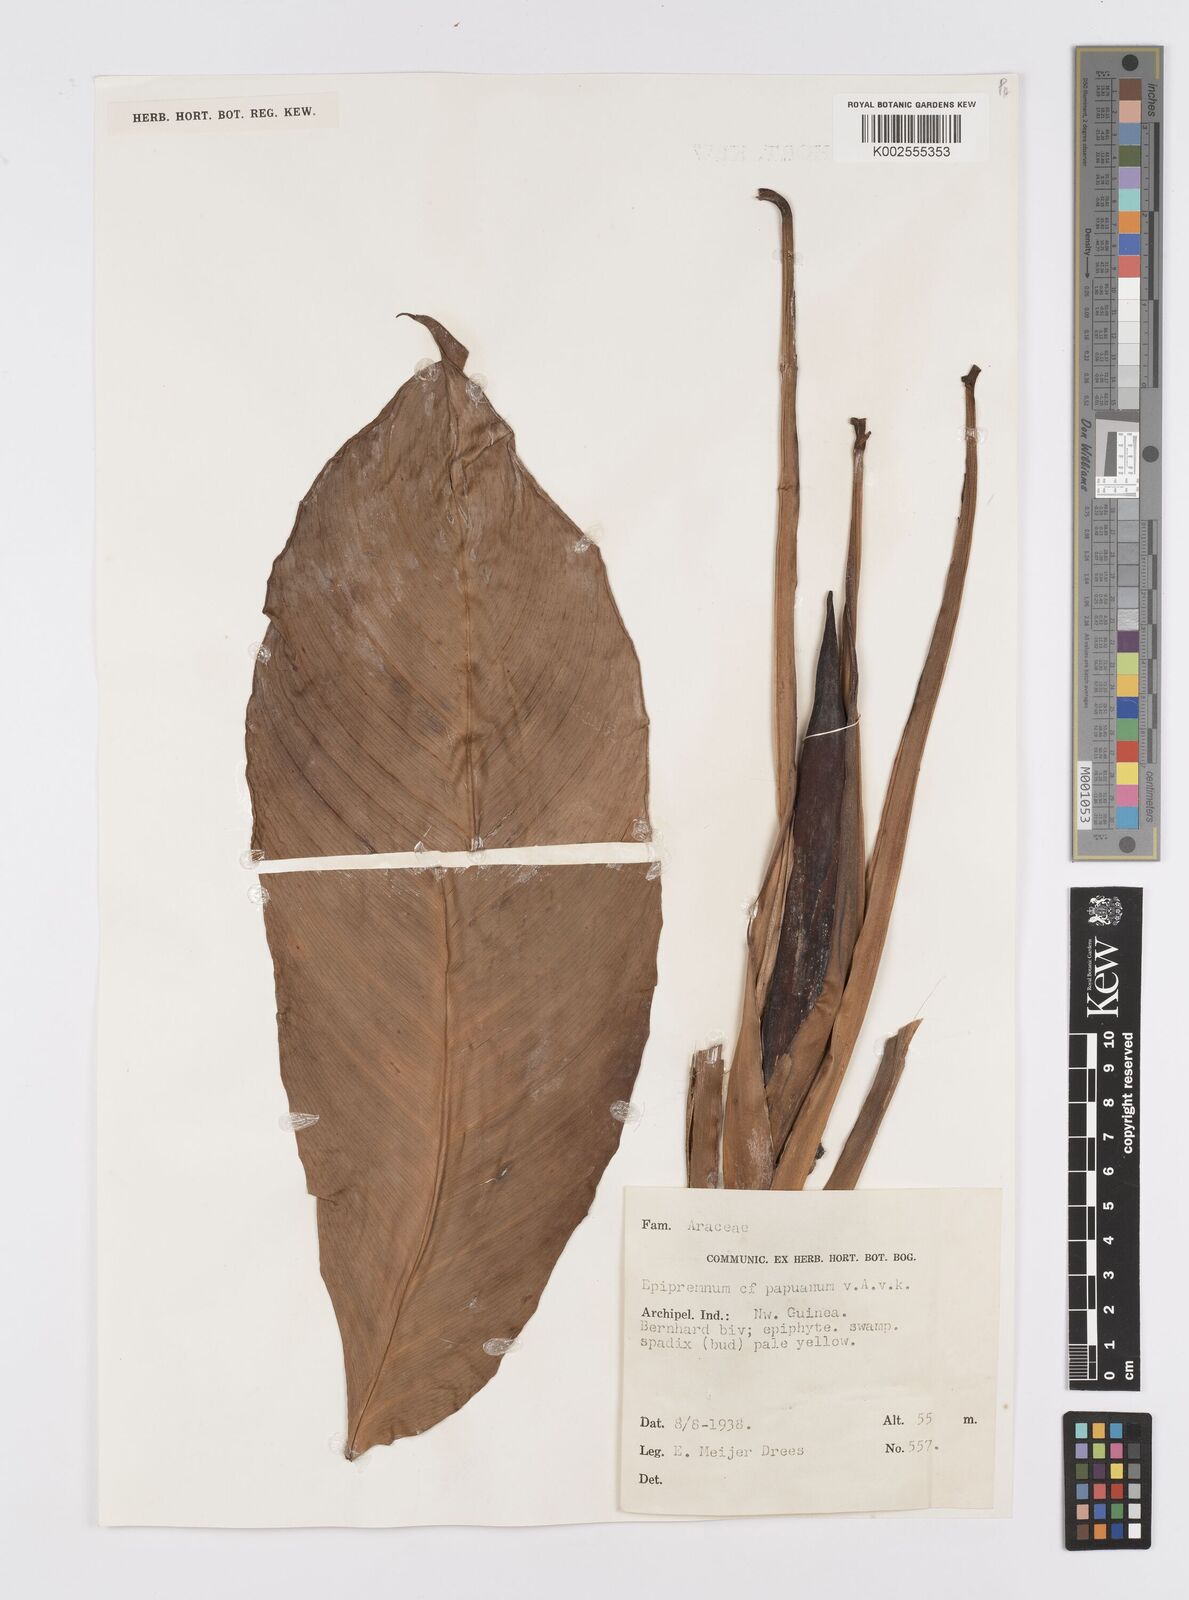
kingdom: Plantae
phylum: Tracheophyta
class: Liliopsida
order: Alismatales
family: Araceae
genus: Epipremnum
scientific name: Epipremnum papuanum
